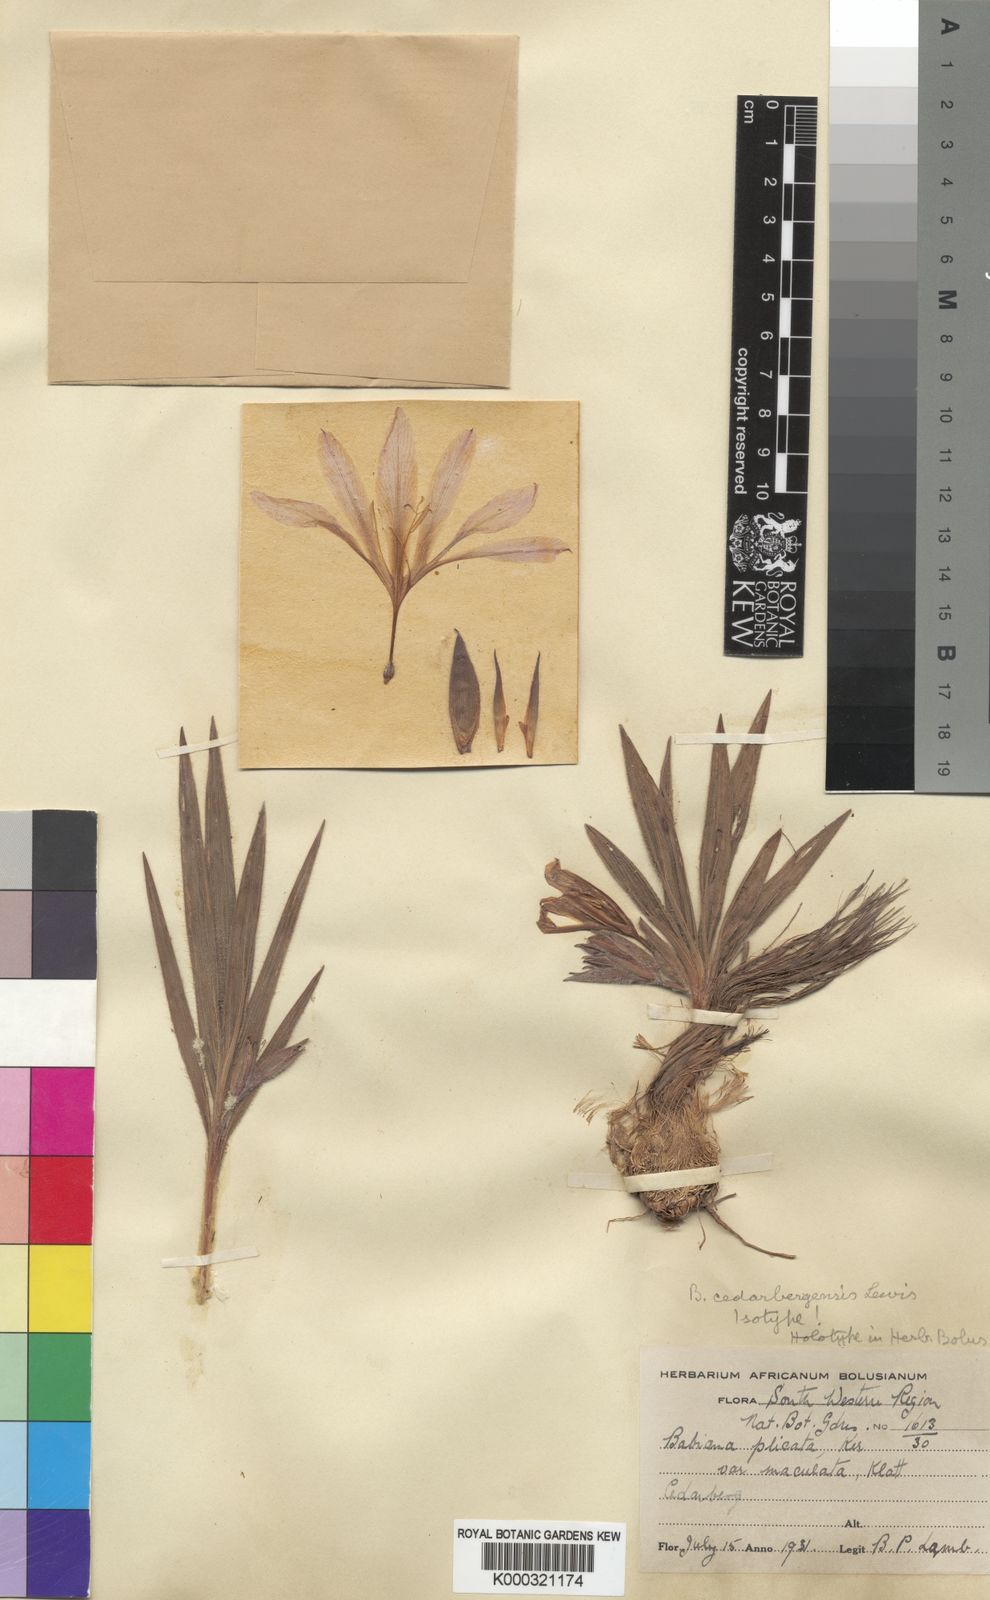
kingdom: Plantae
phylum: Tracheophyta
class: Liliopsida
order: Asparagales
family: Iridaceae
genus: Babiana
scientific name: Babiana cedarbergensis
